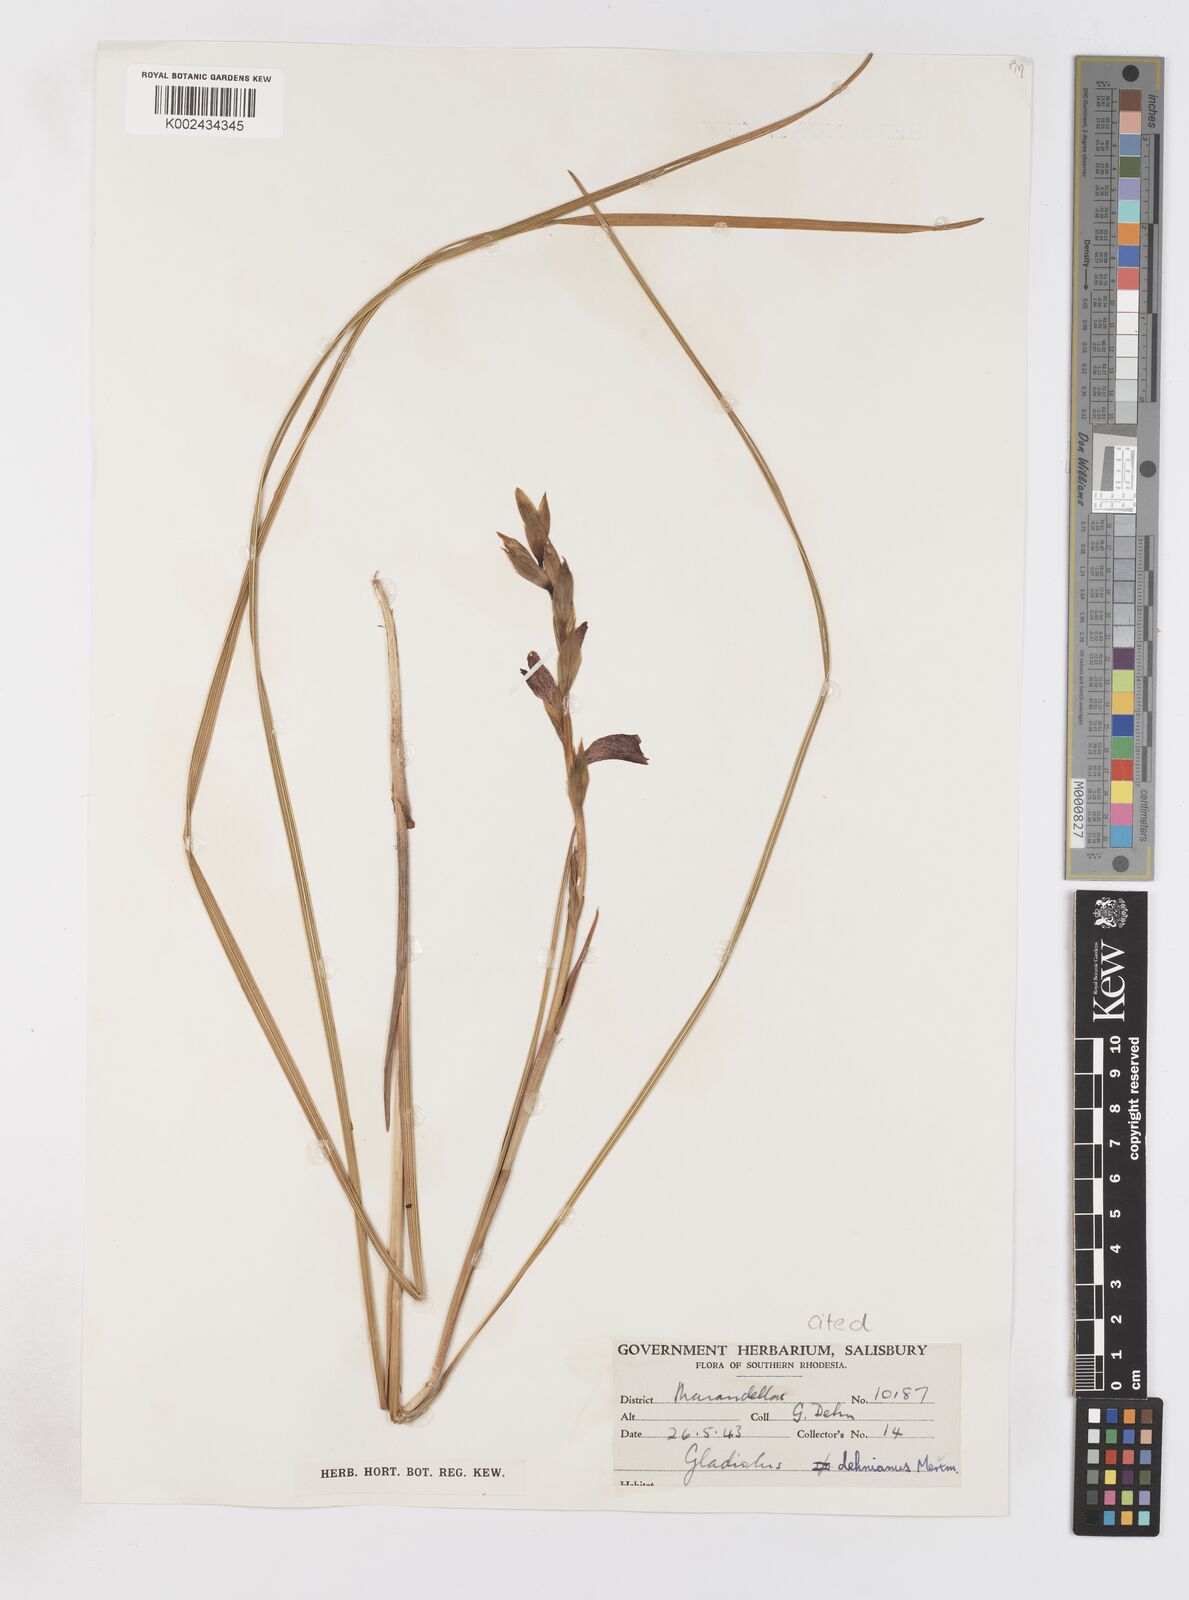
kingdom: Plantae
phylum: Tracheophyta
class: Liliopsida
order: Asparagales
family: Iridaceae
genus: Gladiolus
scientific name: Gladiolus sericeovillosus
